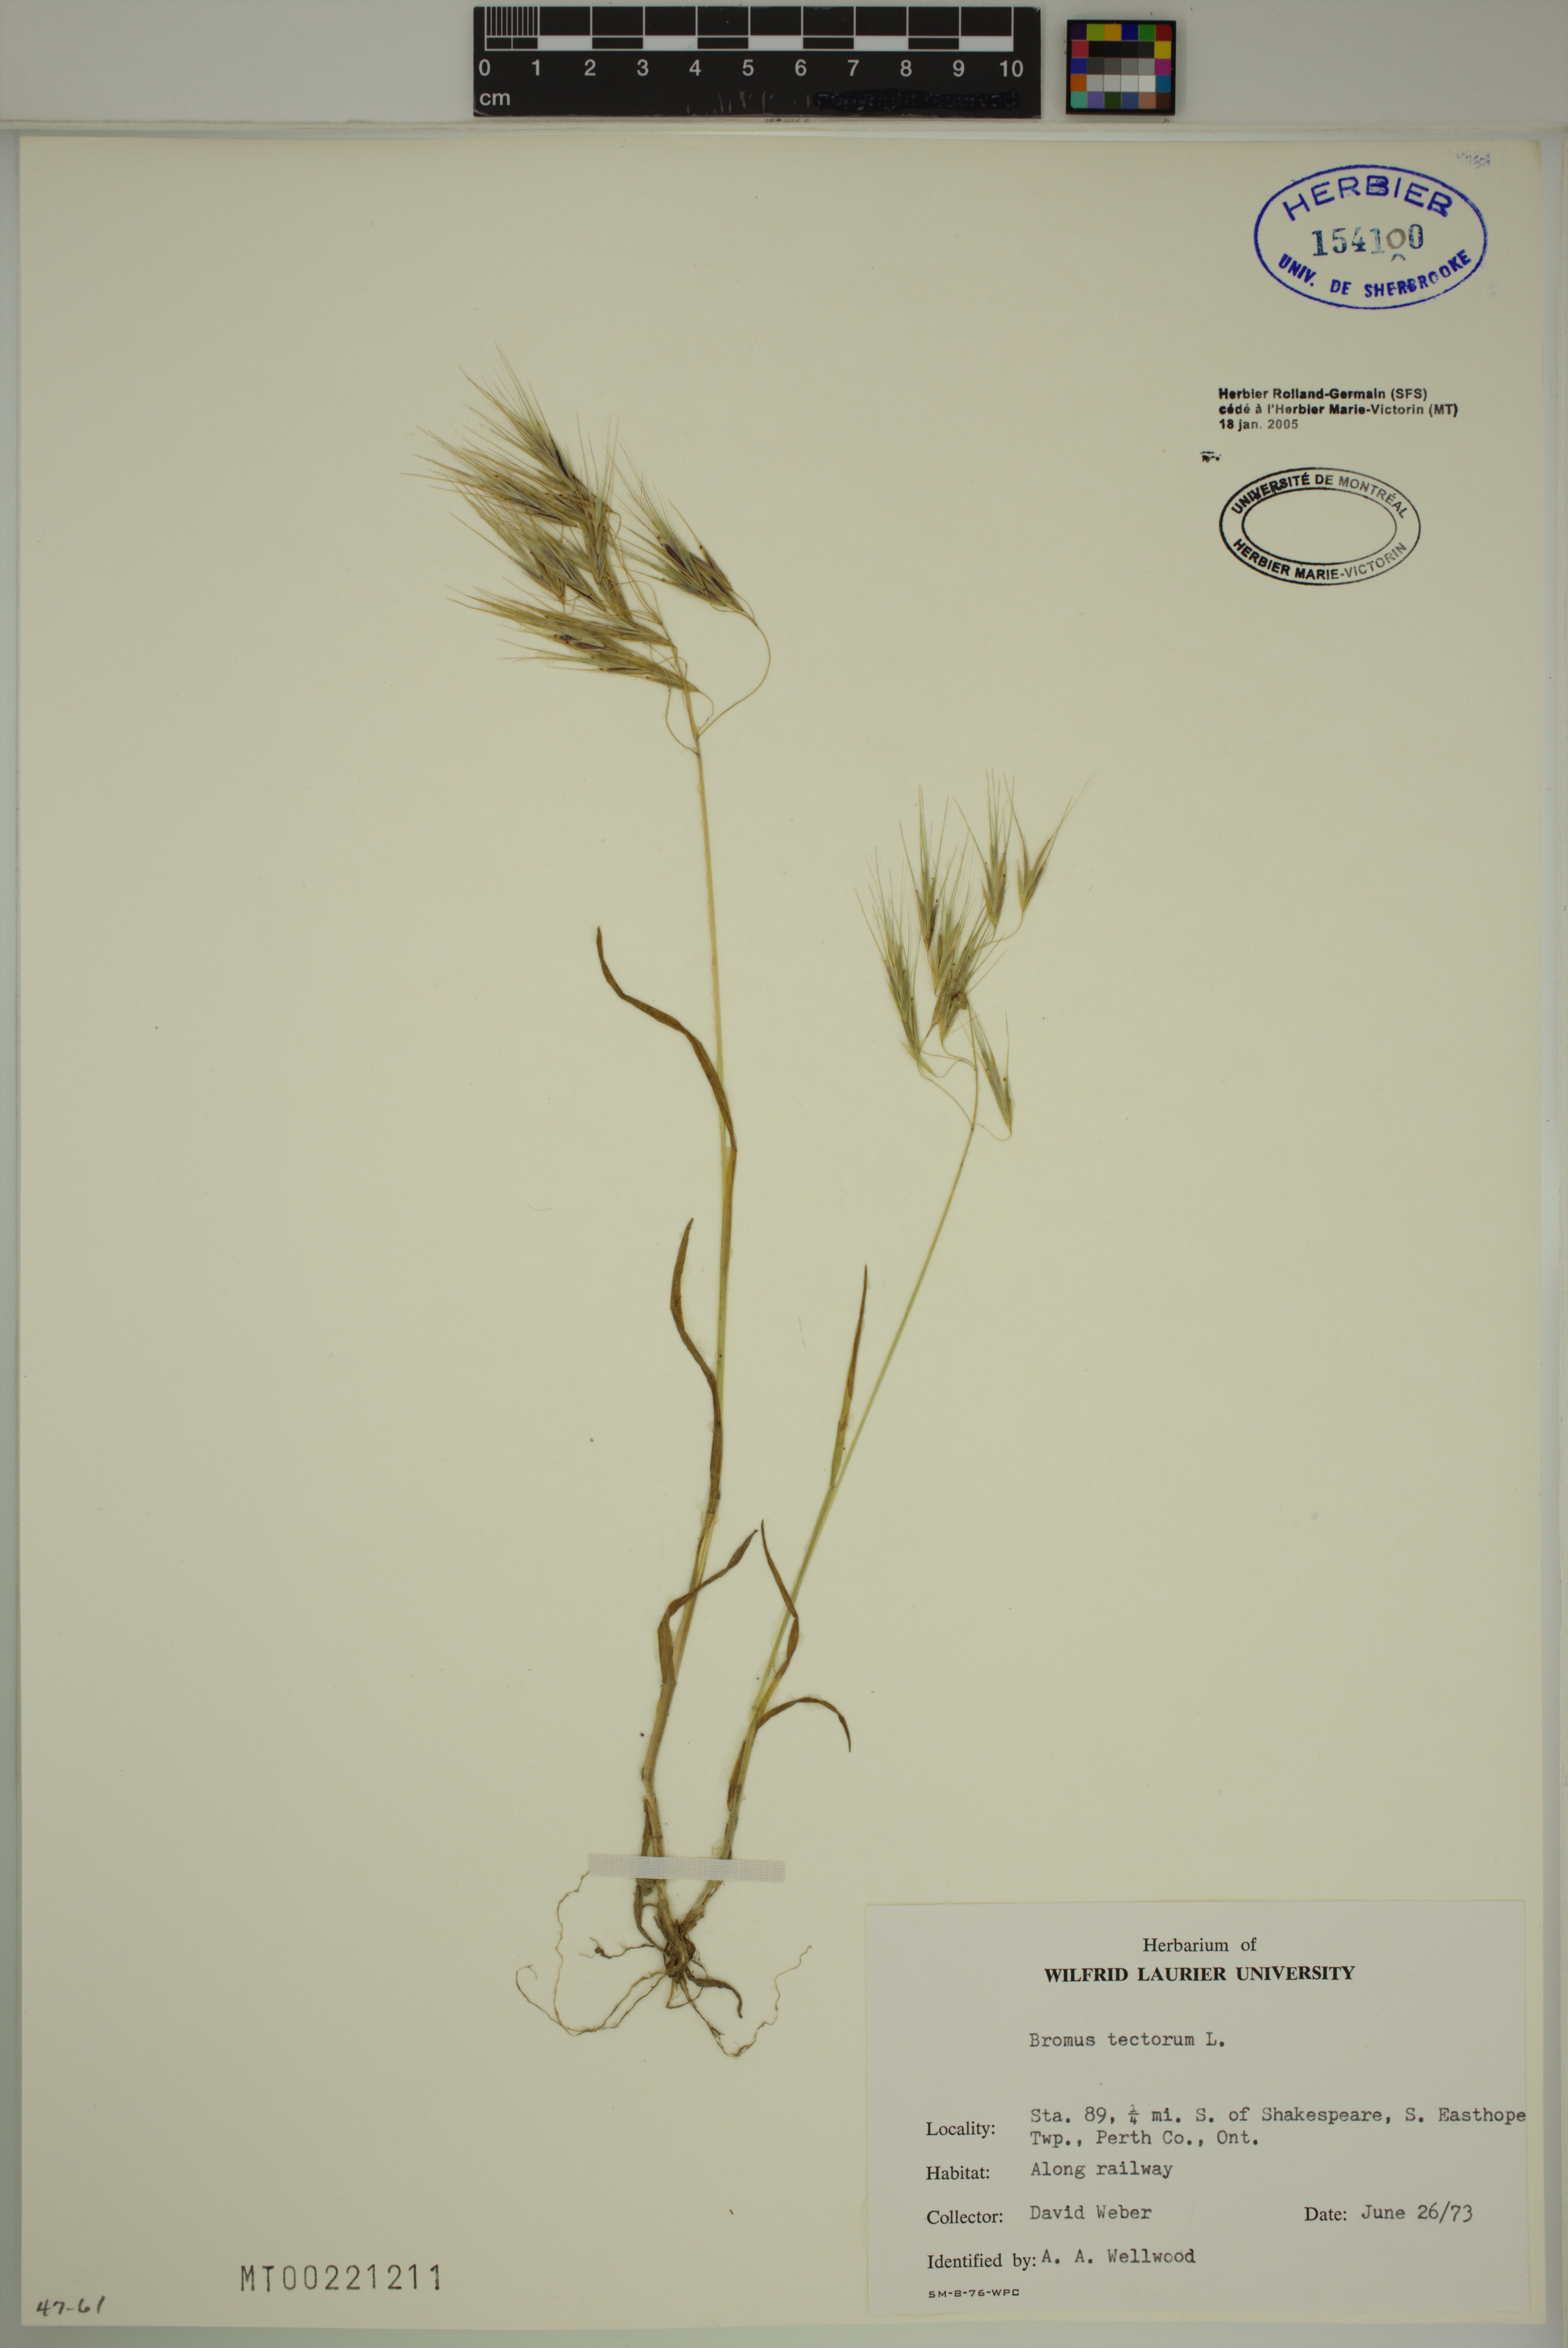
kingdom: Plantae
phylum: Tracheophyta
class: Liliopsida
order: Poales
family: Poaceae
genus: Bromus
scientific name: Bromus tectorum
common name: Cheatgrass
